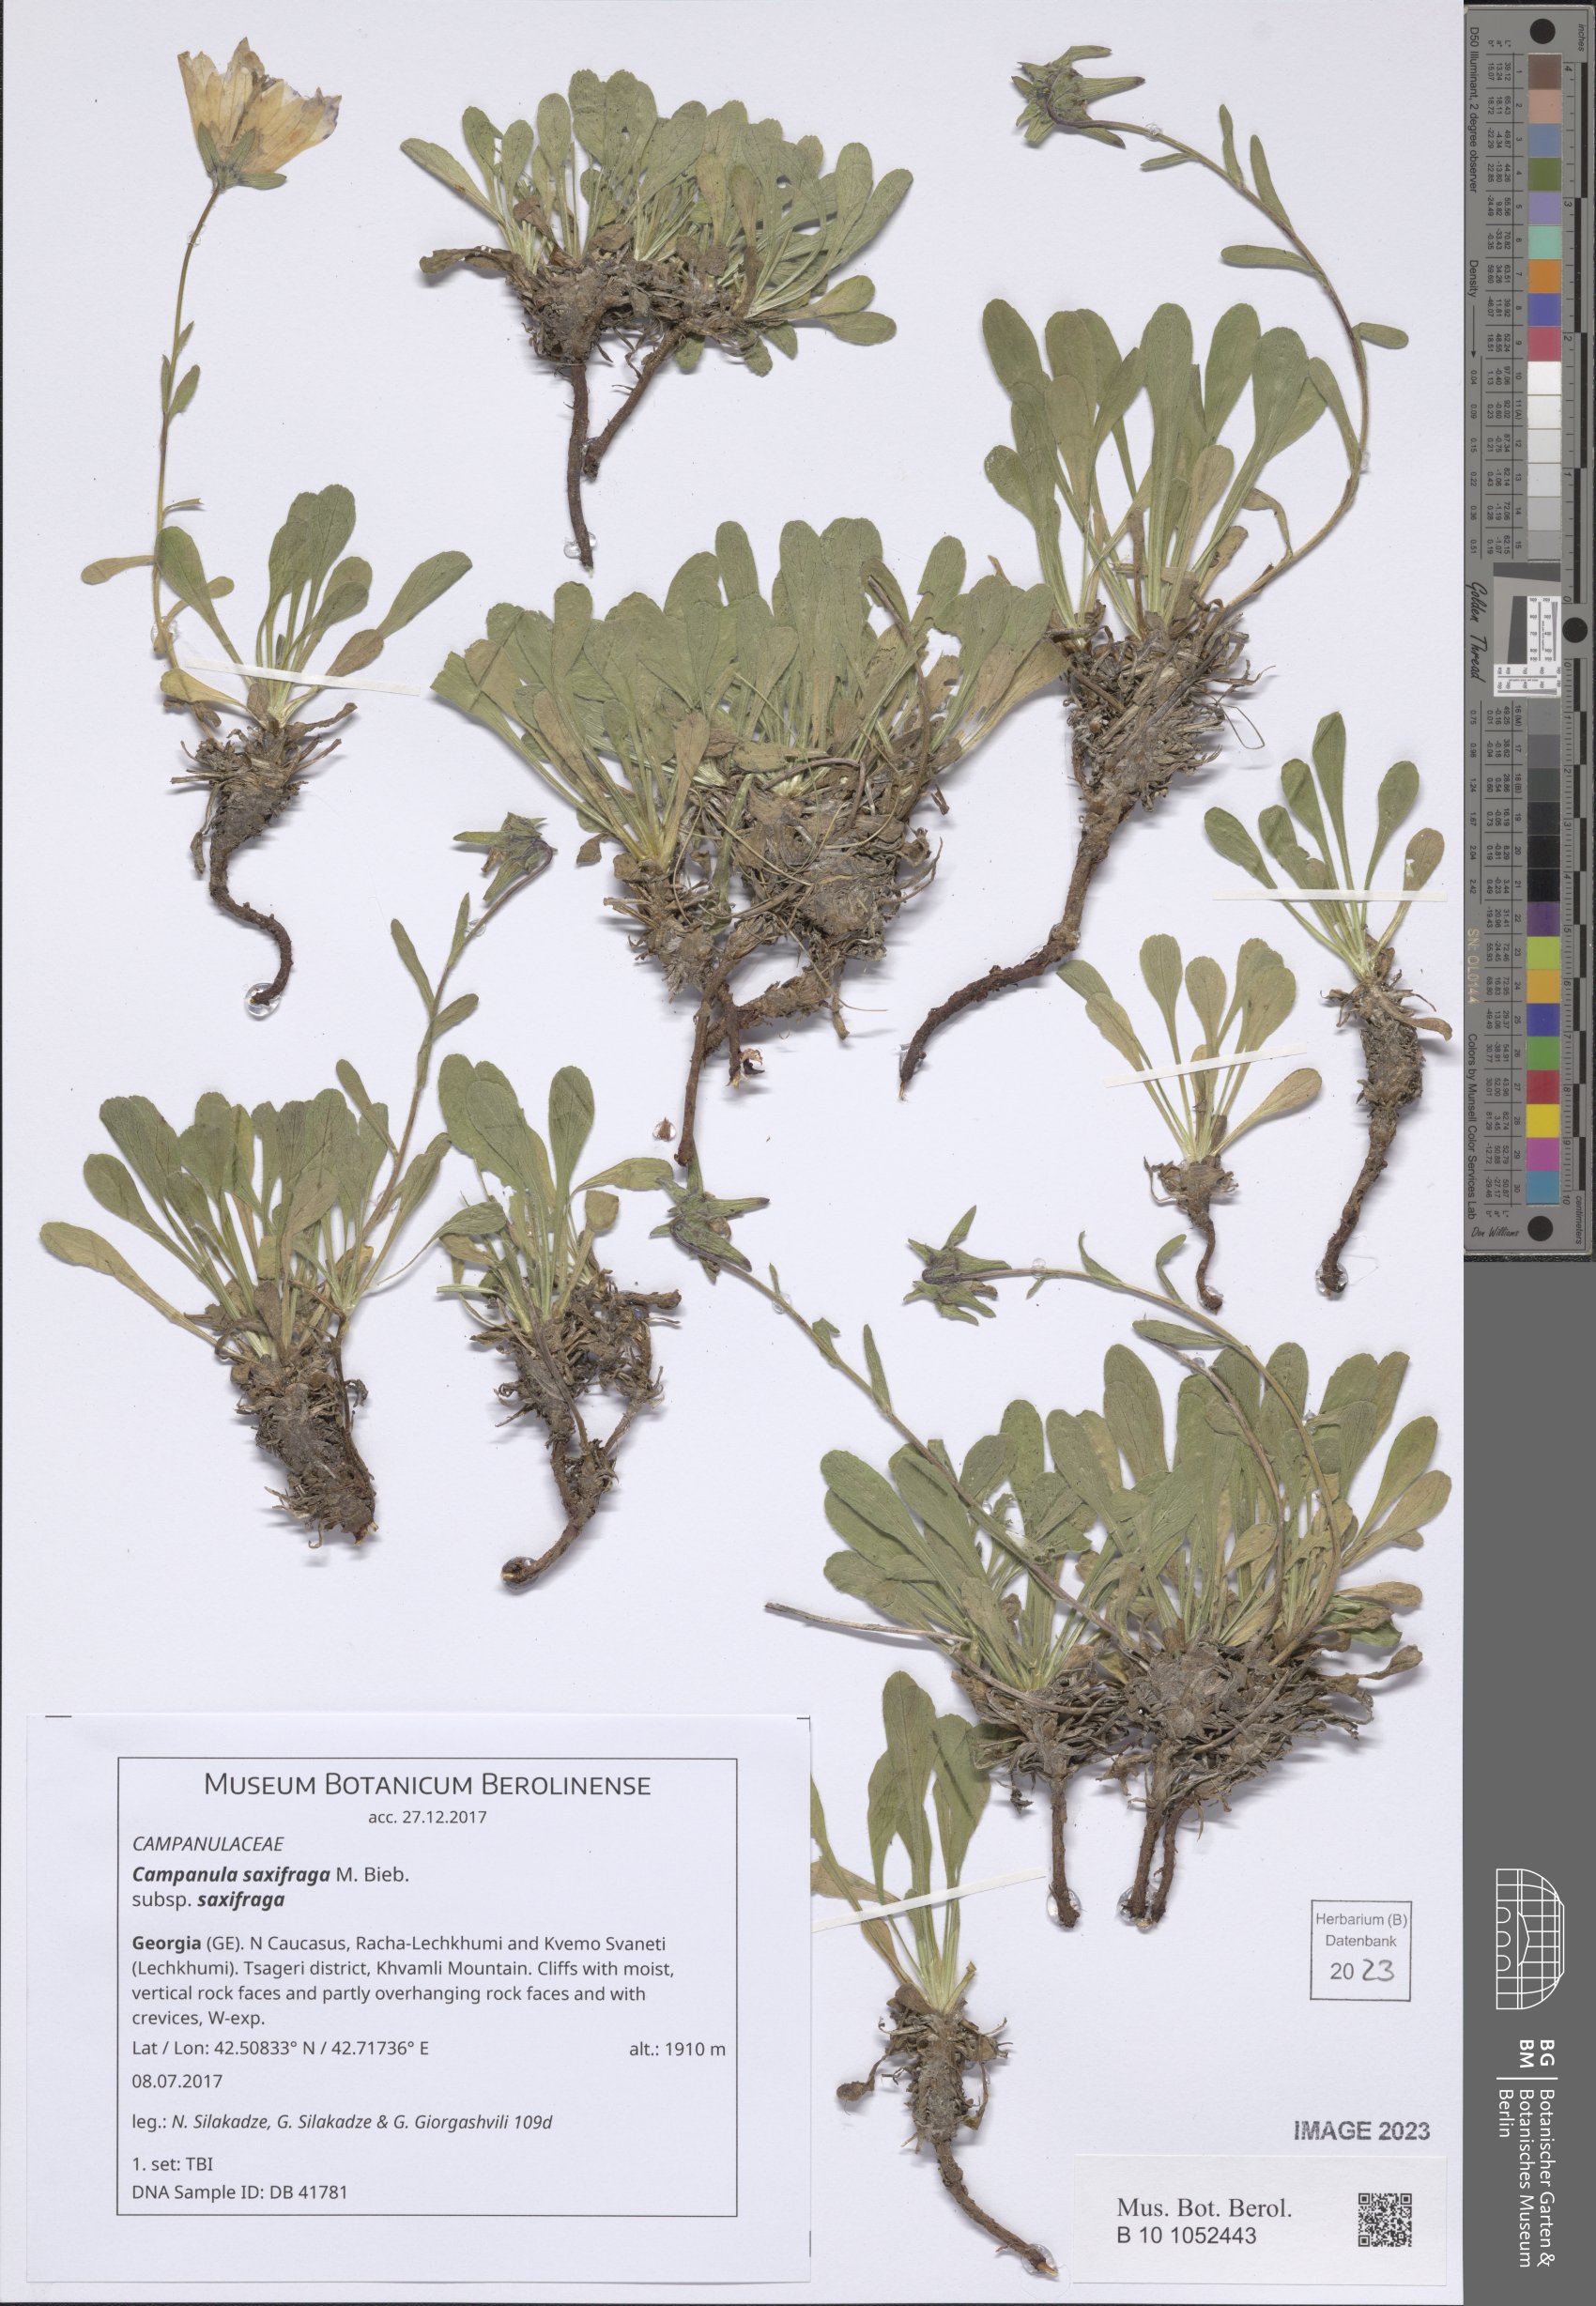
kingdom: Plantae
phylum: Tracheophyta
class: Magnoliopsida
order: Asterales
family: Campanulaceae
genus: Campanula
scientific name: Campanula saxifraga
